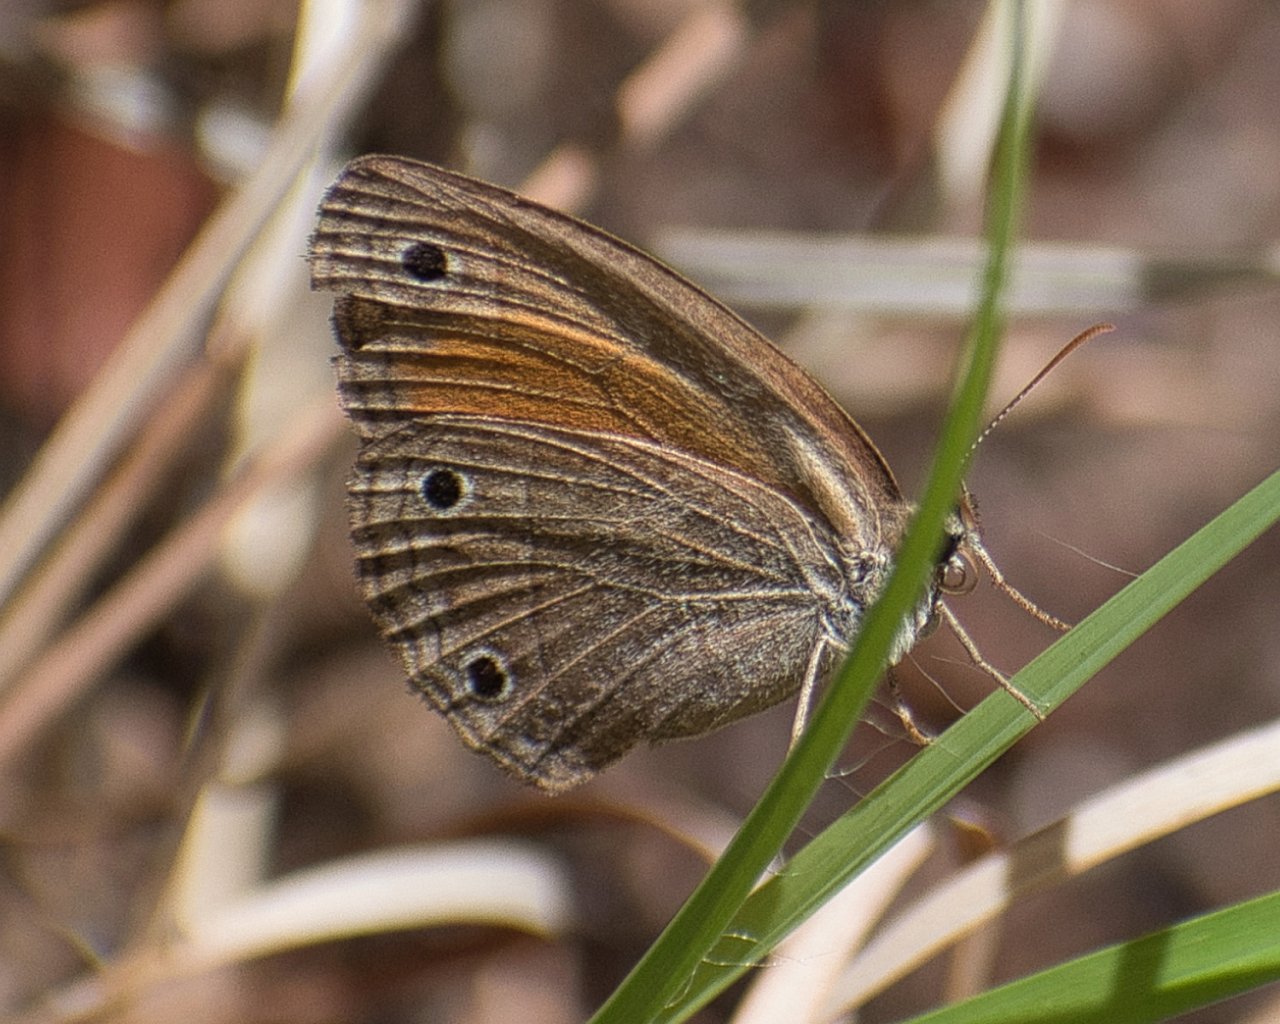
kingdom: Animalia
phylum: Arthropoda
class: Insecta
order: Lepidoptera
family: Nymphalidae
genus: Euptychia
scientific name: Euptychia rubricata
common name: Red Satyr
